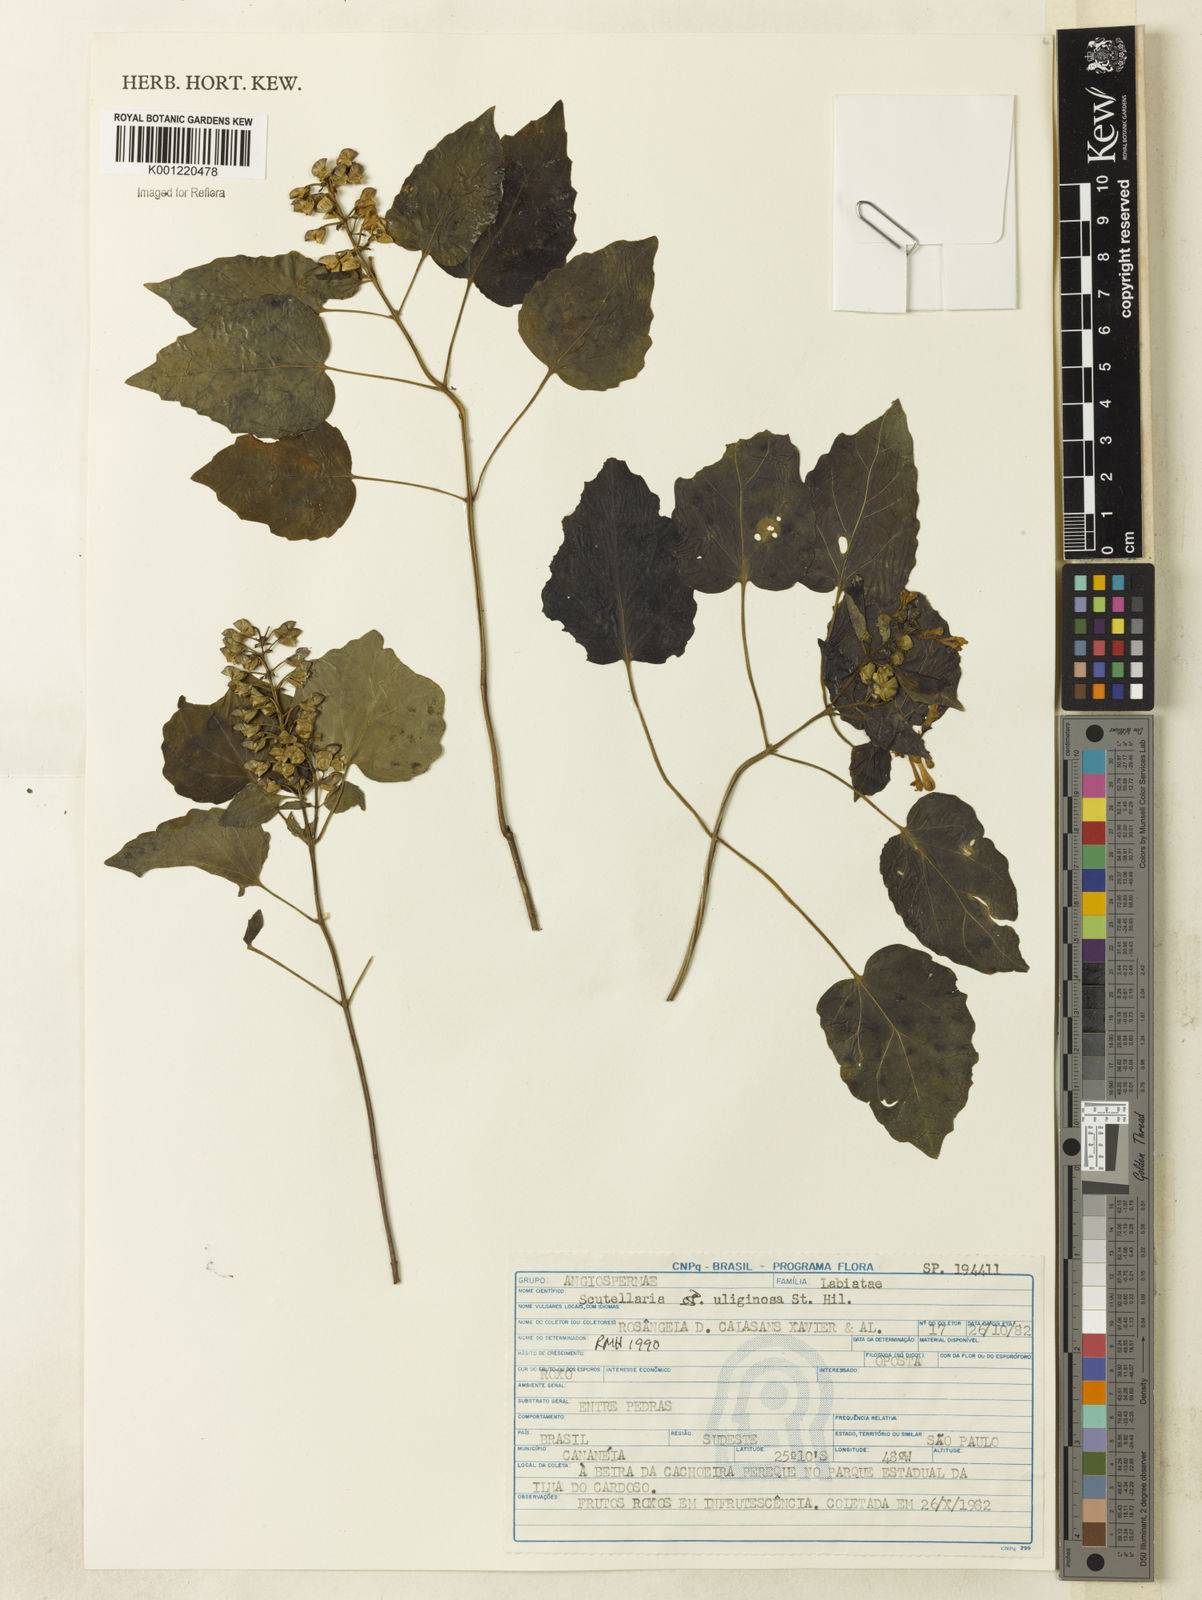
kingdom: Plantae
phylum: Tracheophyta
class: Magnoliopsida
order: Lamiales
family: Lamiaceae
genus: Scutellaria
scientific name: Scutellaria uliginosa
